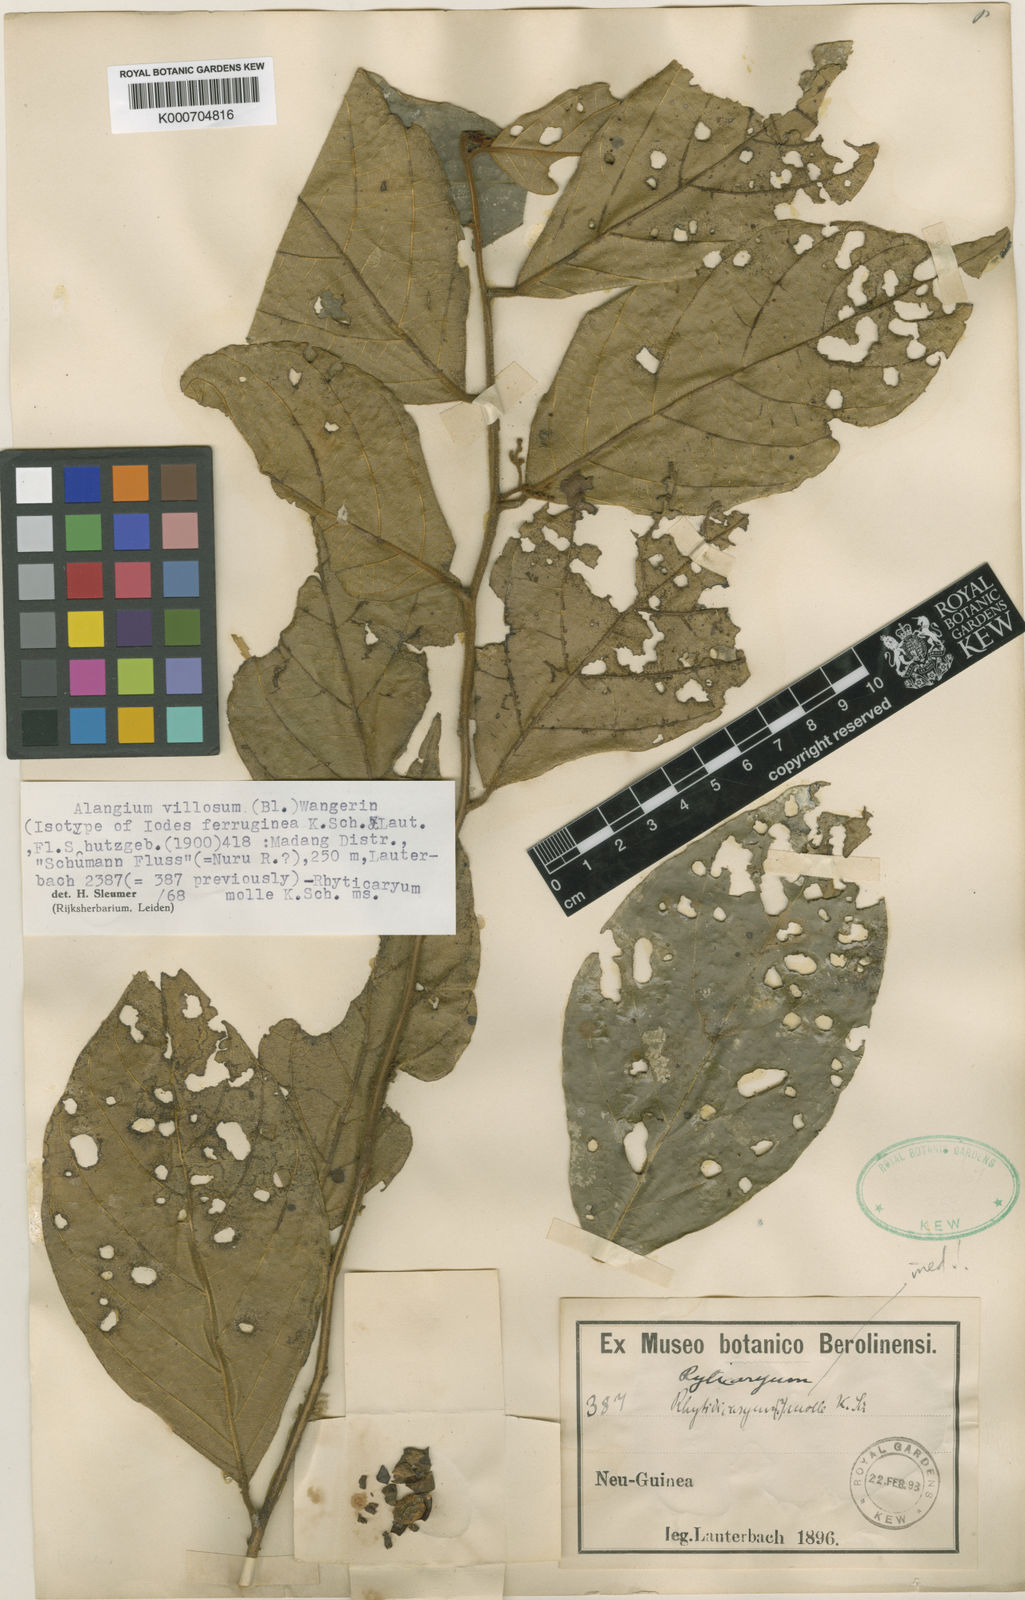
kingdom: Plantae
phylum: Tracheophyta
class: Magnoliopsida
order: Cornales
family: Cornaceae
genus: Alangium
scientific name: Alangium villosum
